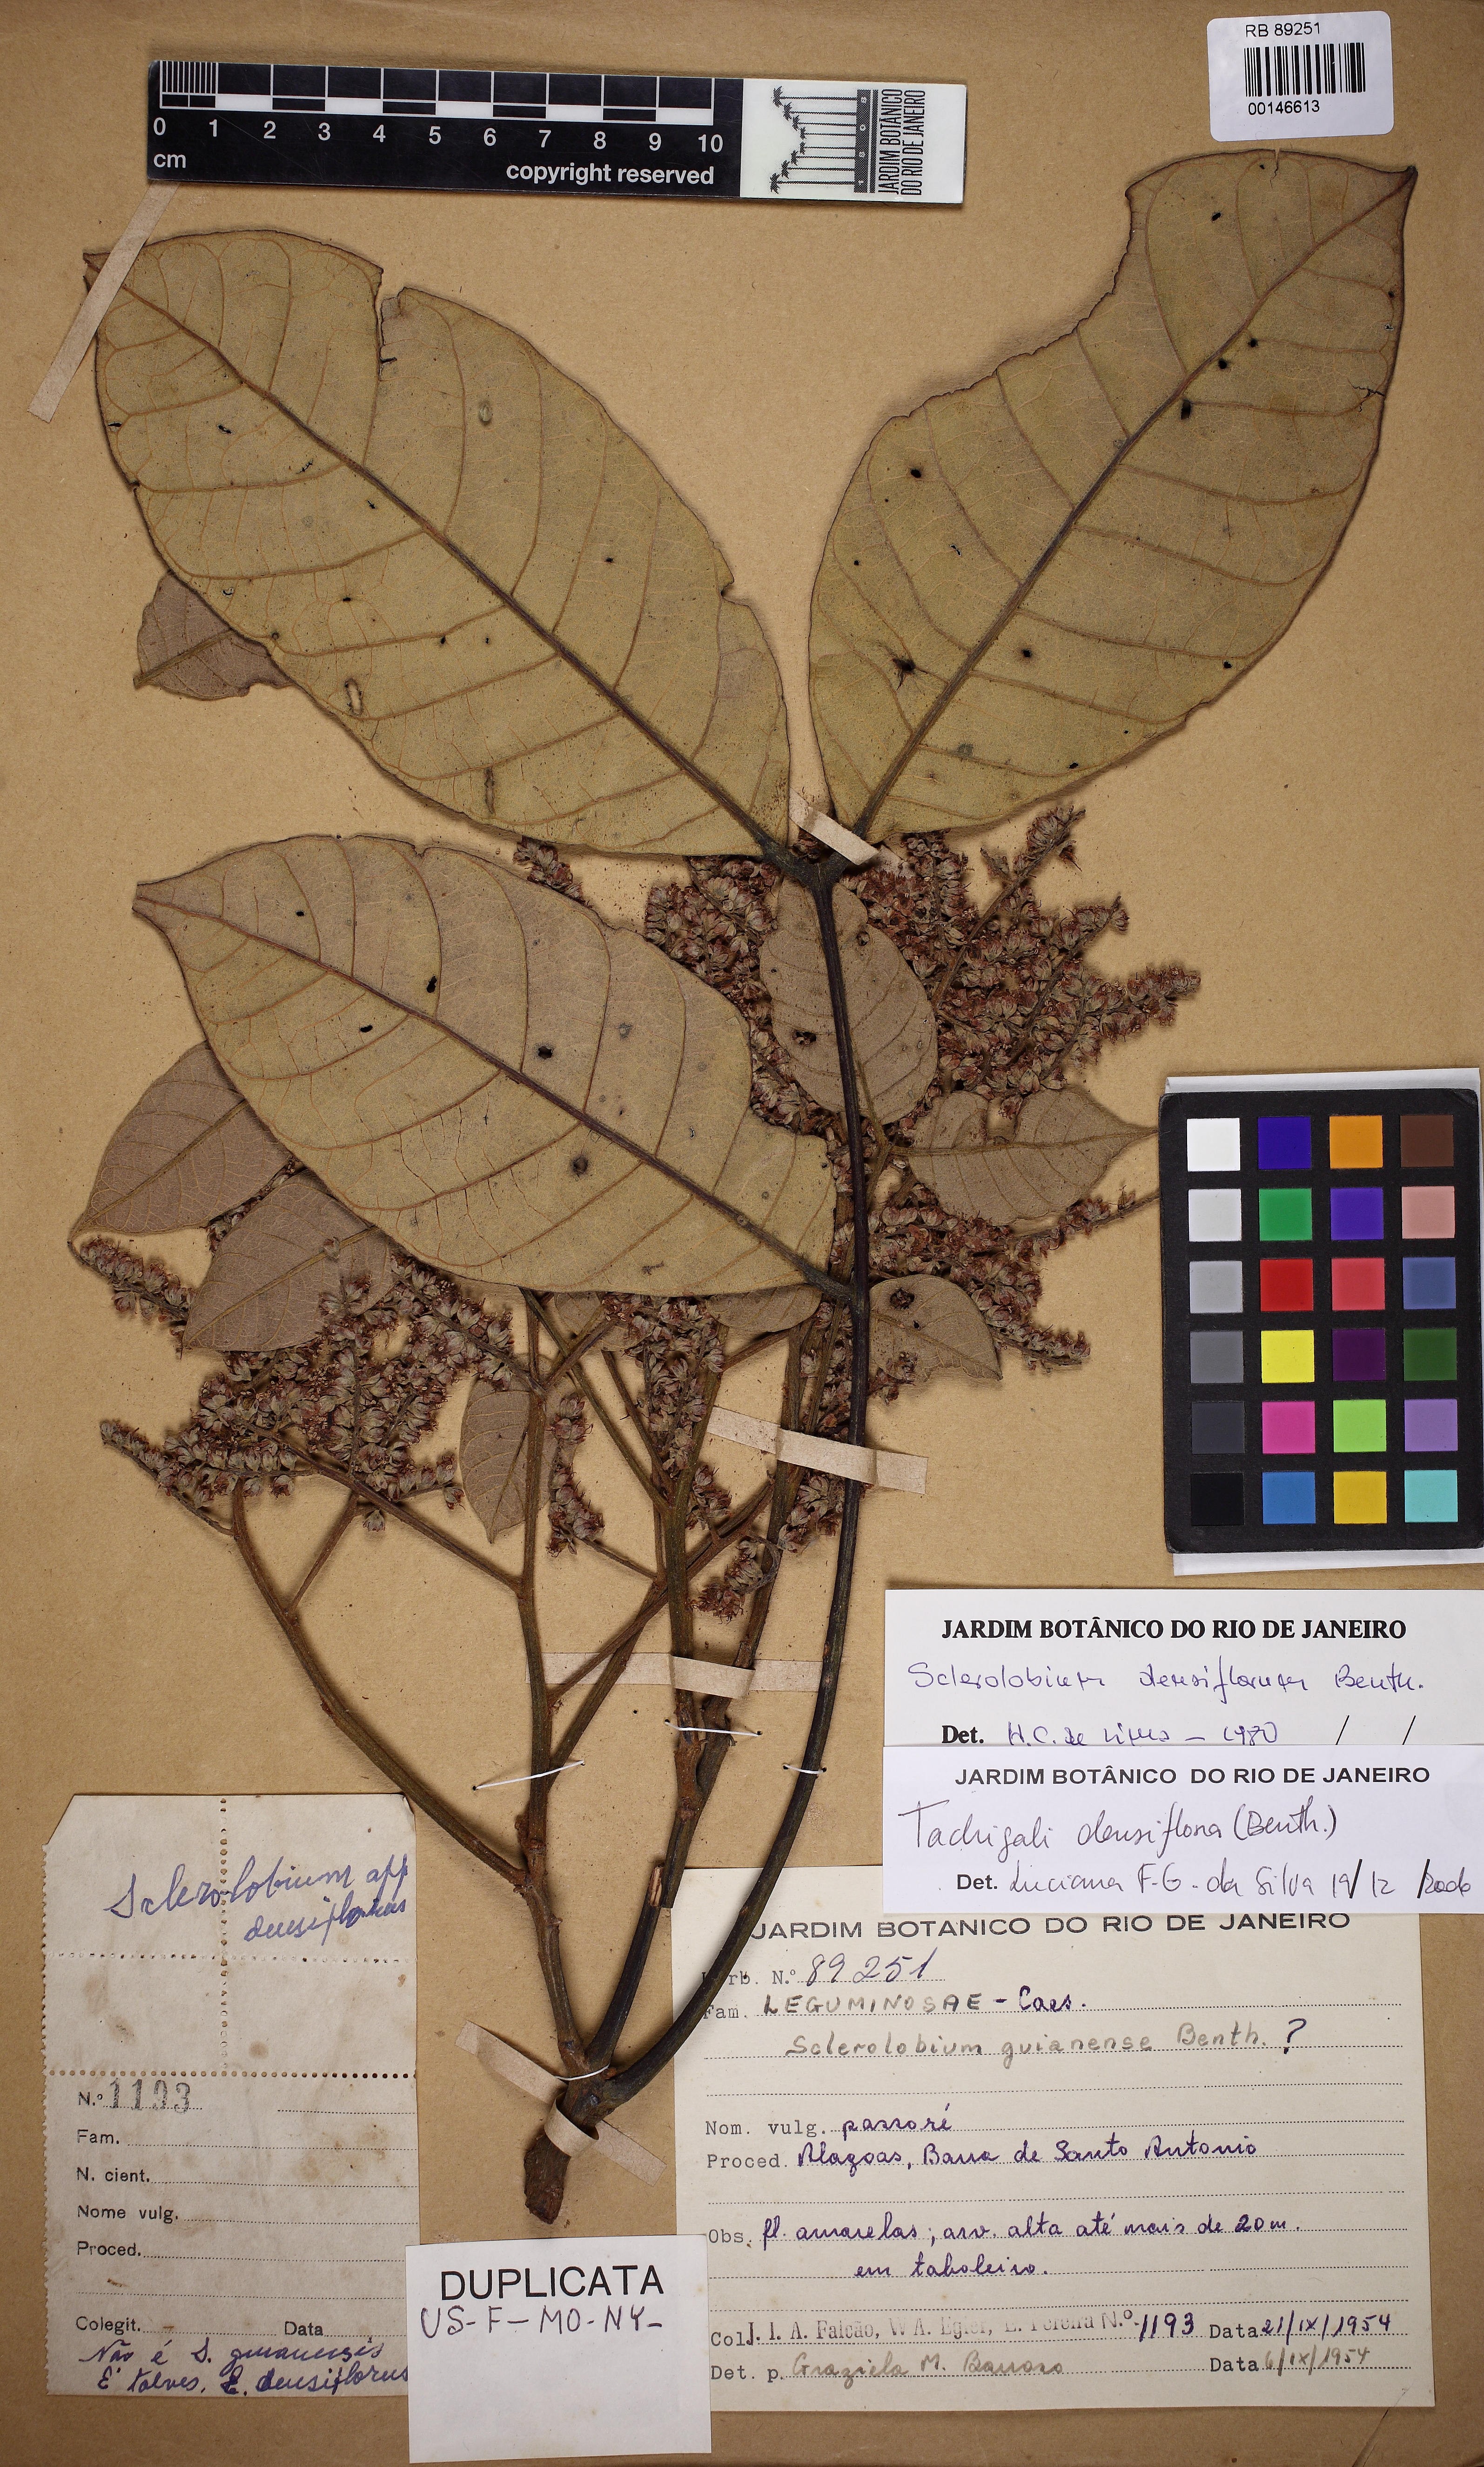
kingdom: Plantae
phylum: Tracheophyta
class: Magnoliopsida
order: Fabales
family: Fabaceae
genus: Tachigali
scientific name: Tachigali densiflora
